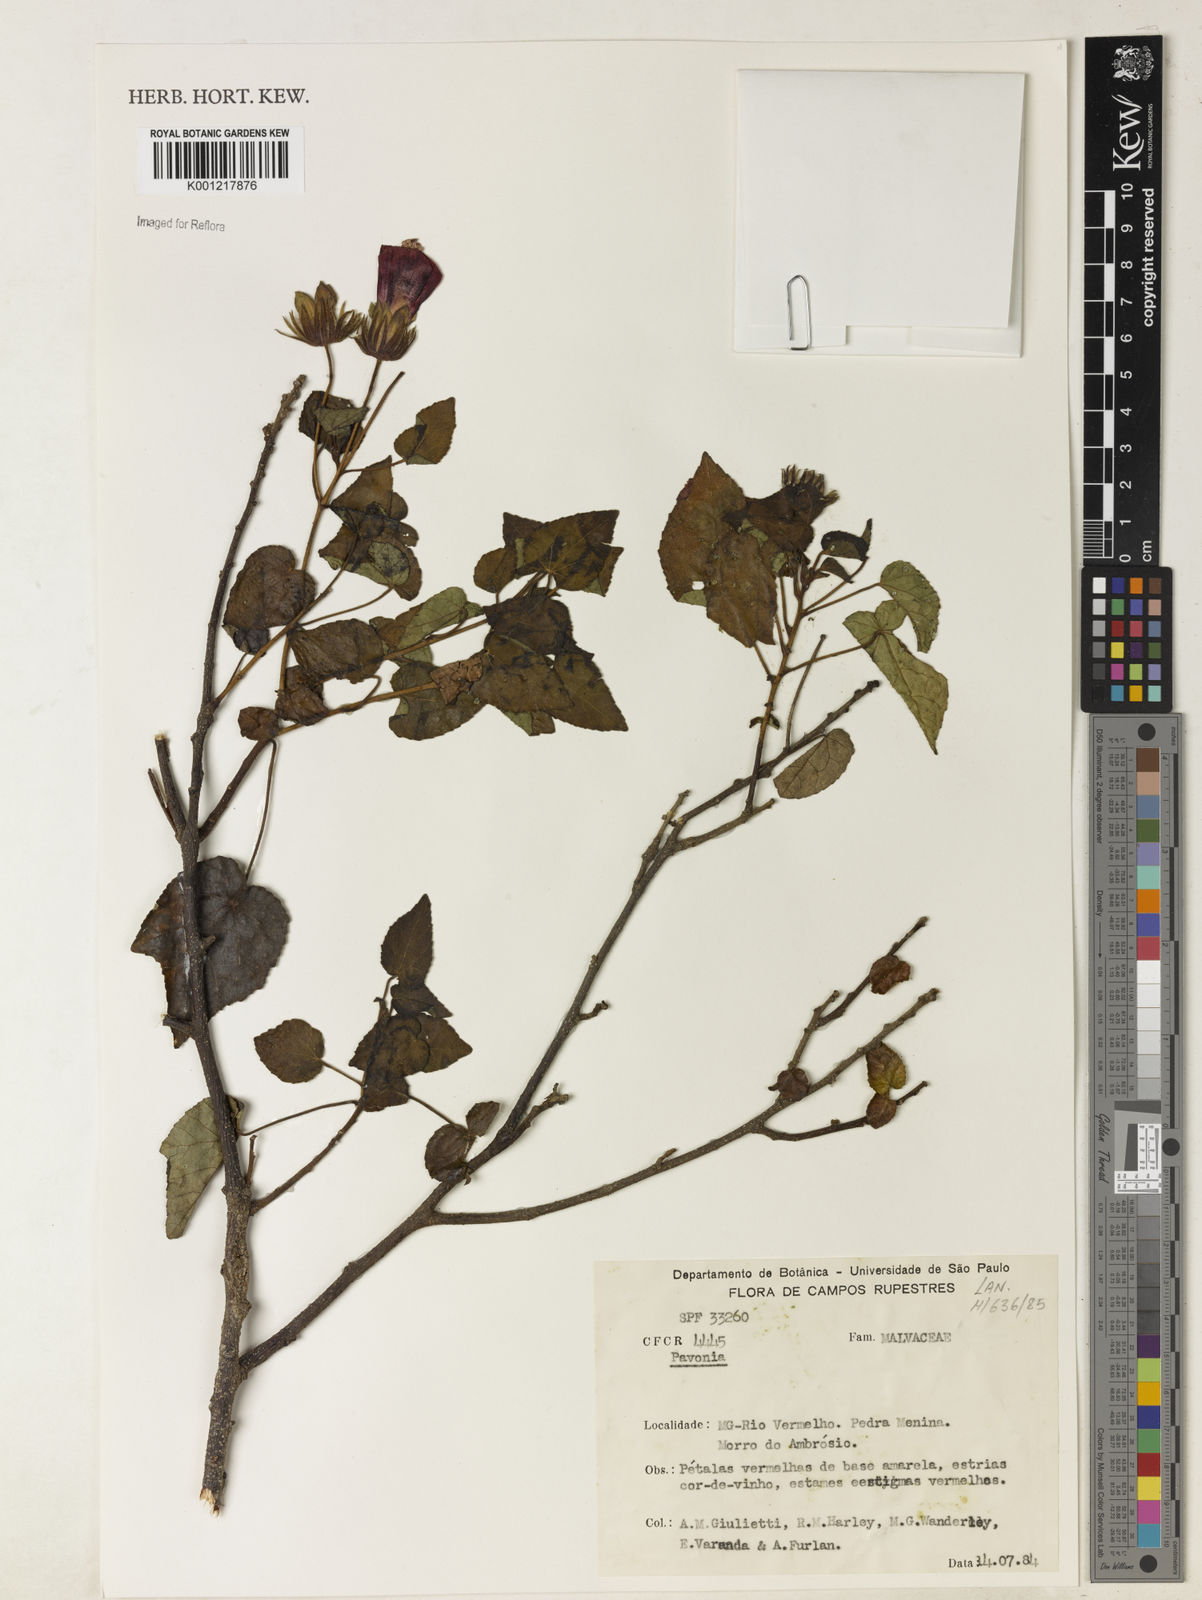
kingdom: Plantae
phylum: Tracheophyta
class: Magnoliopsida
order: Malvales
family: Malvaceae
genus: Pavonia
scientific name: Pavonia
